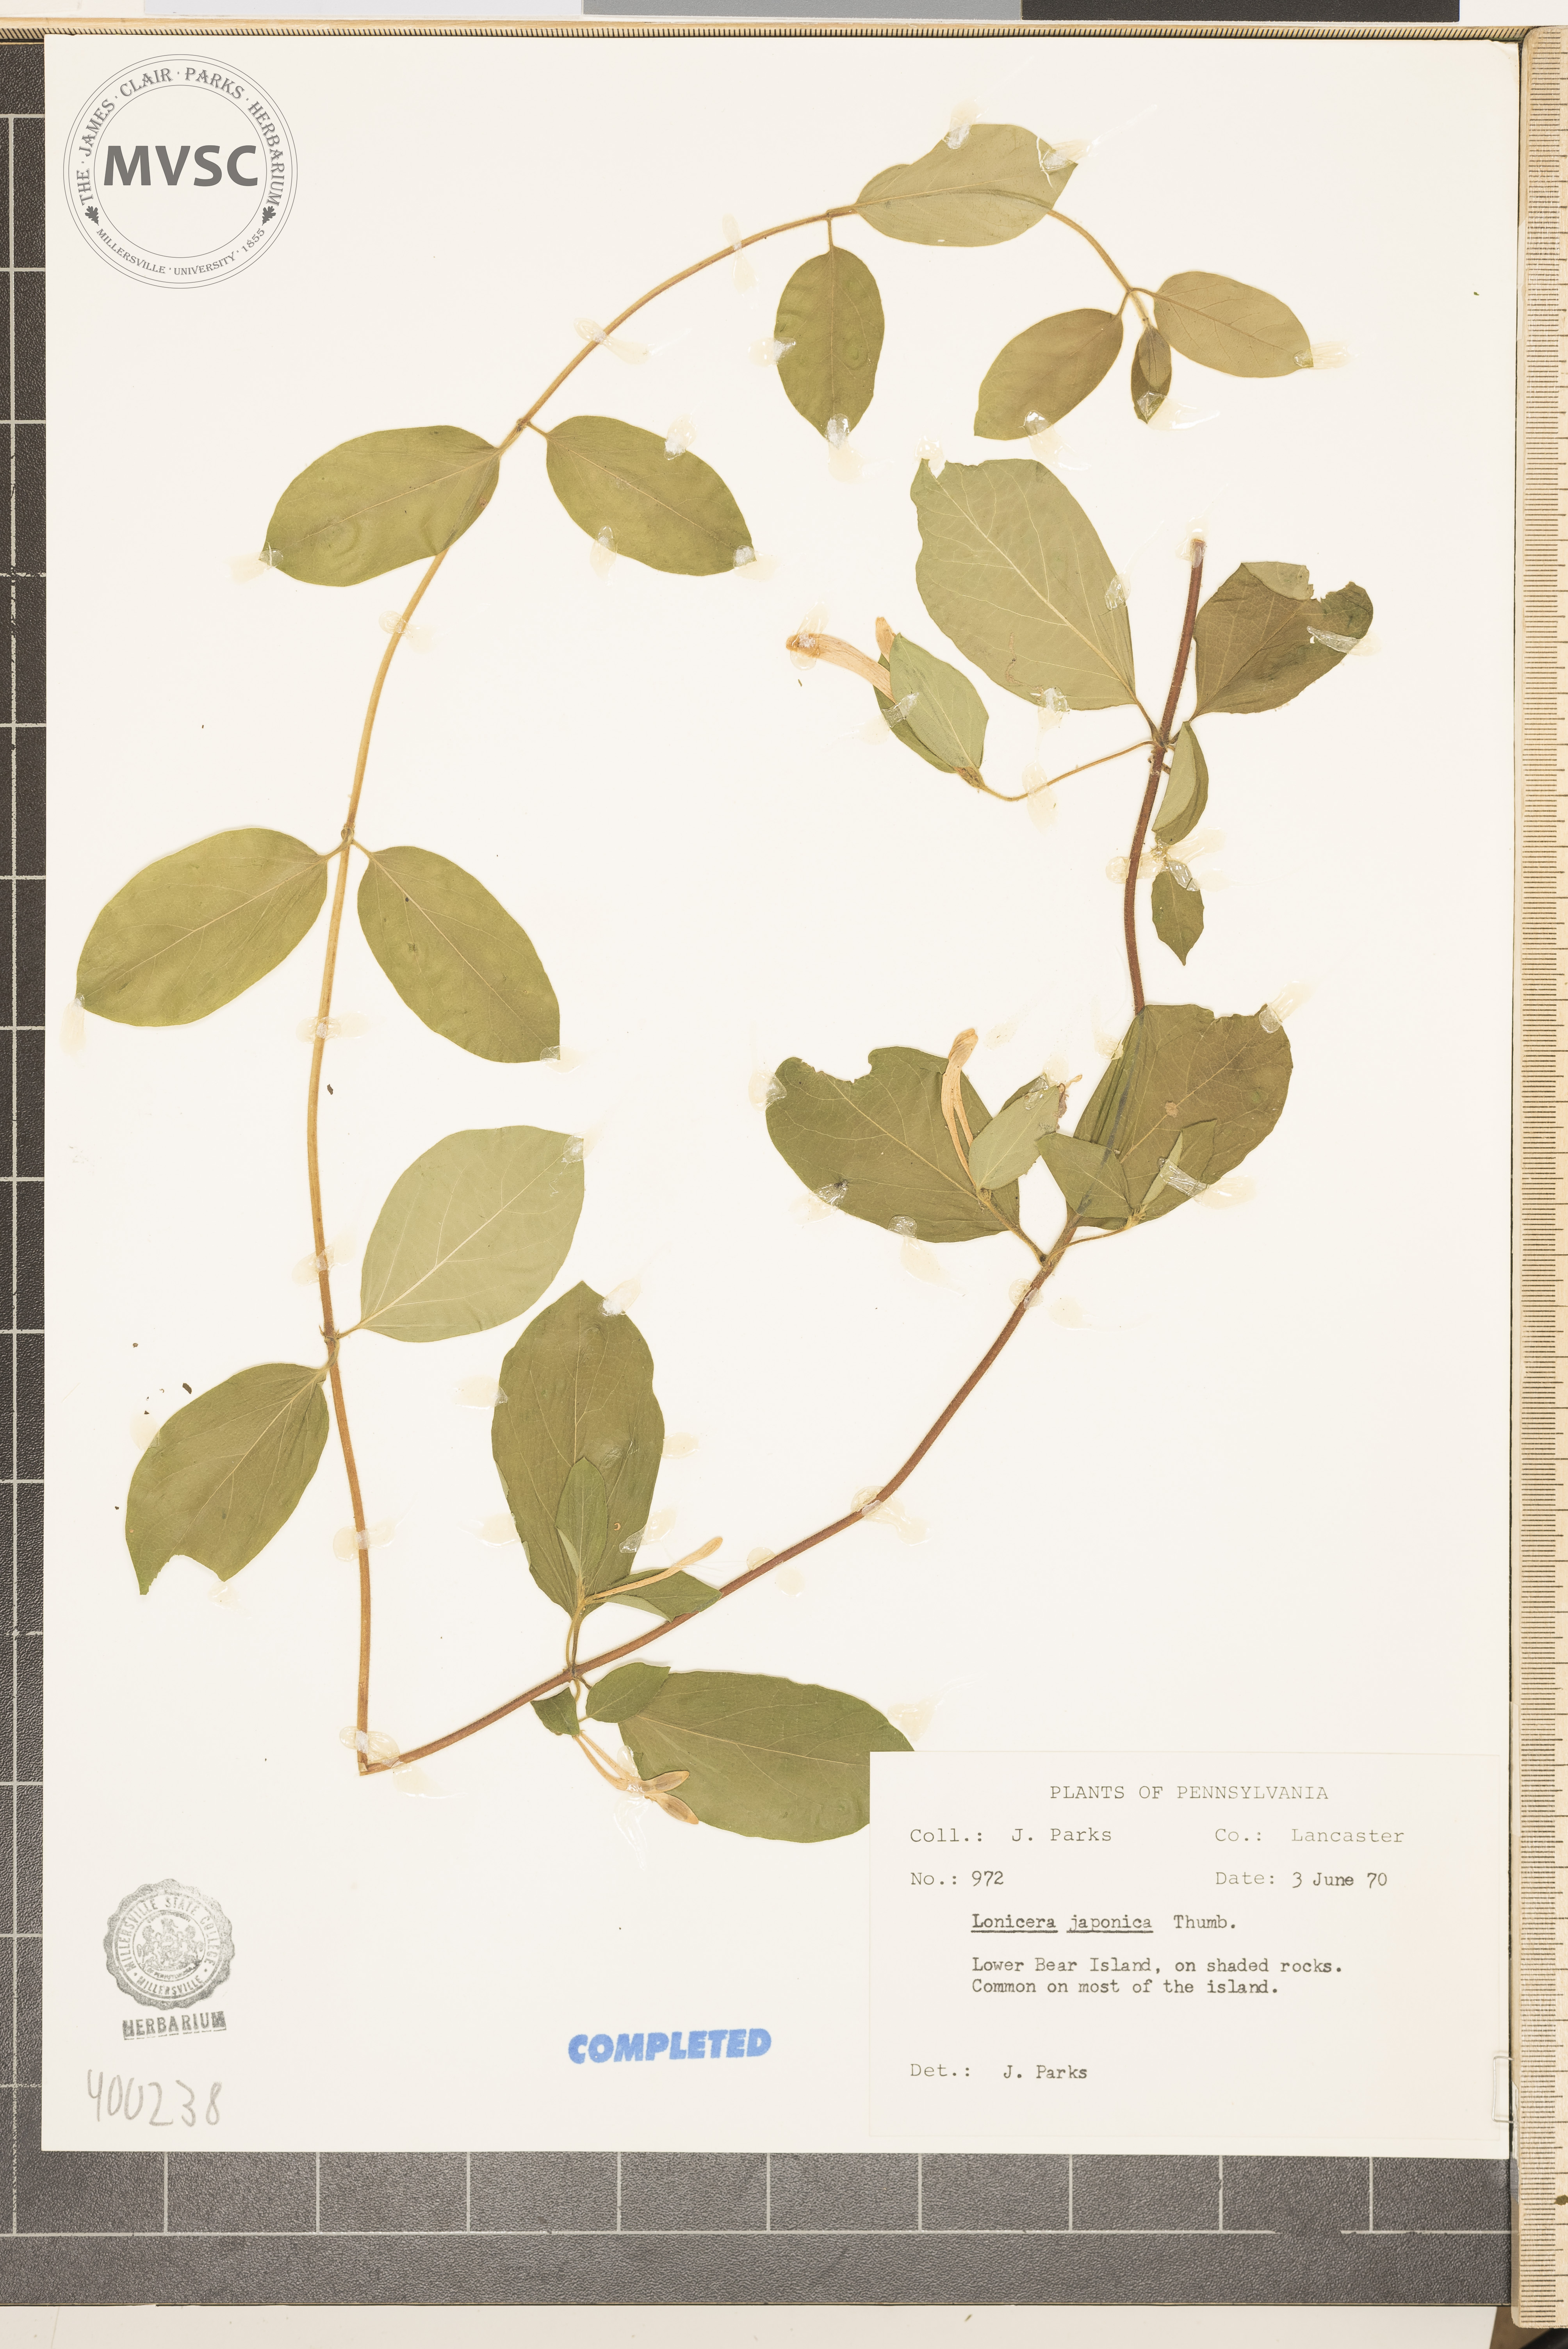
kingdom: Plantae
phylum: Tracheophyta
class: Magnoliopsida
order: Dipsacales
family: Caprifoliaceae
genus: Lonicera
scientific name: Lonicera japonica
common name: Japanese honeysuckle
